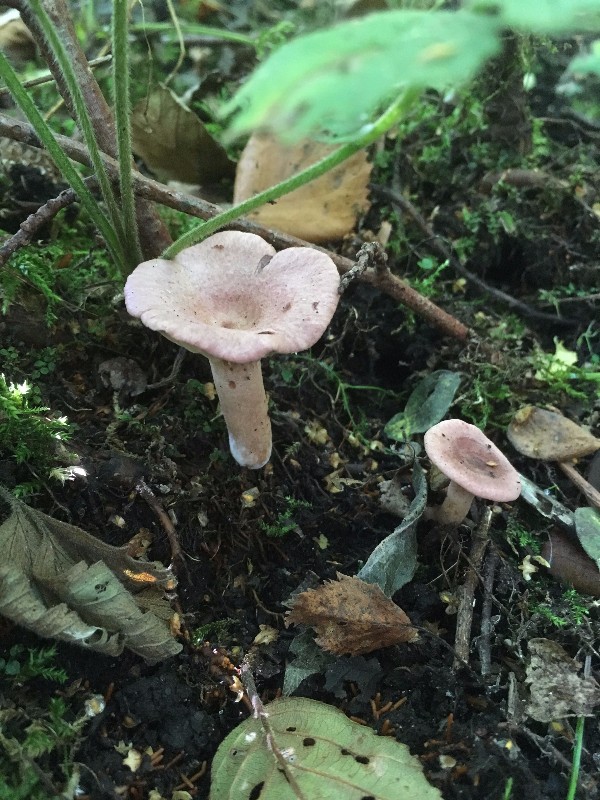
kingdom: Fungi
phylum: Basidiomycota
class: Agaricomycetes
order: Russulales
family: Russulaceae
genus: Lactarius
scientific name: Lactarius lilacinus
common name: lilla mælkehat
